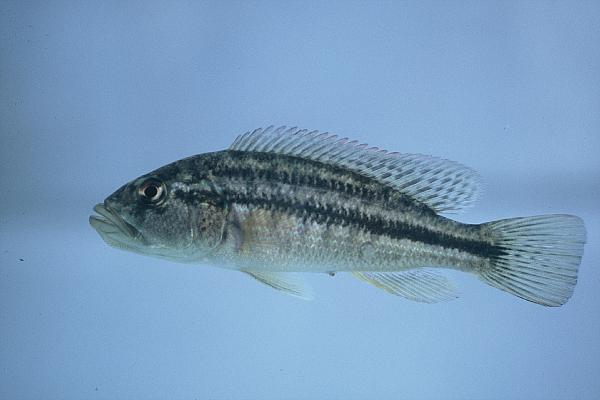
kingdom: Animalia
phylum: Chordata
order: Perciformes
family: Cichlidae
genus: Serranochromis
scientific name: Serranochromis robustus
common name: Yellow-belly bream
